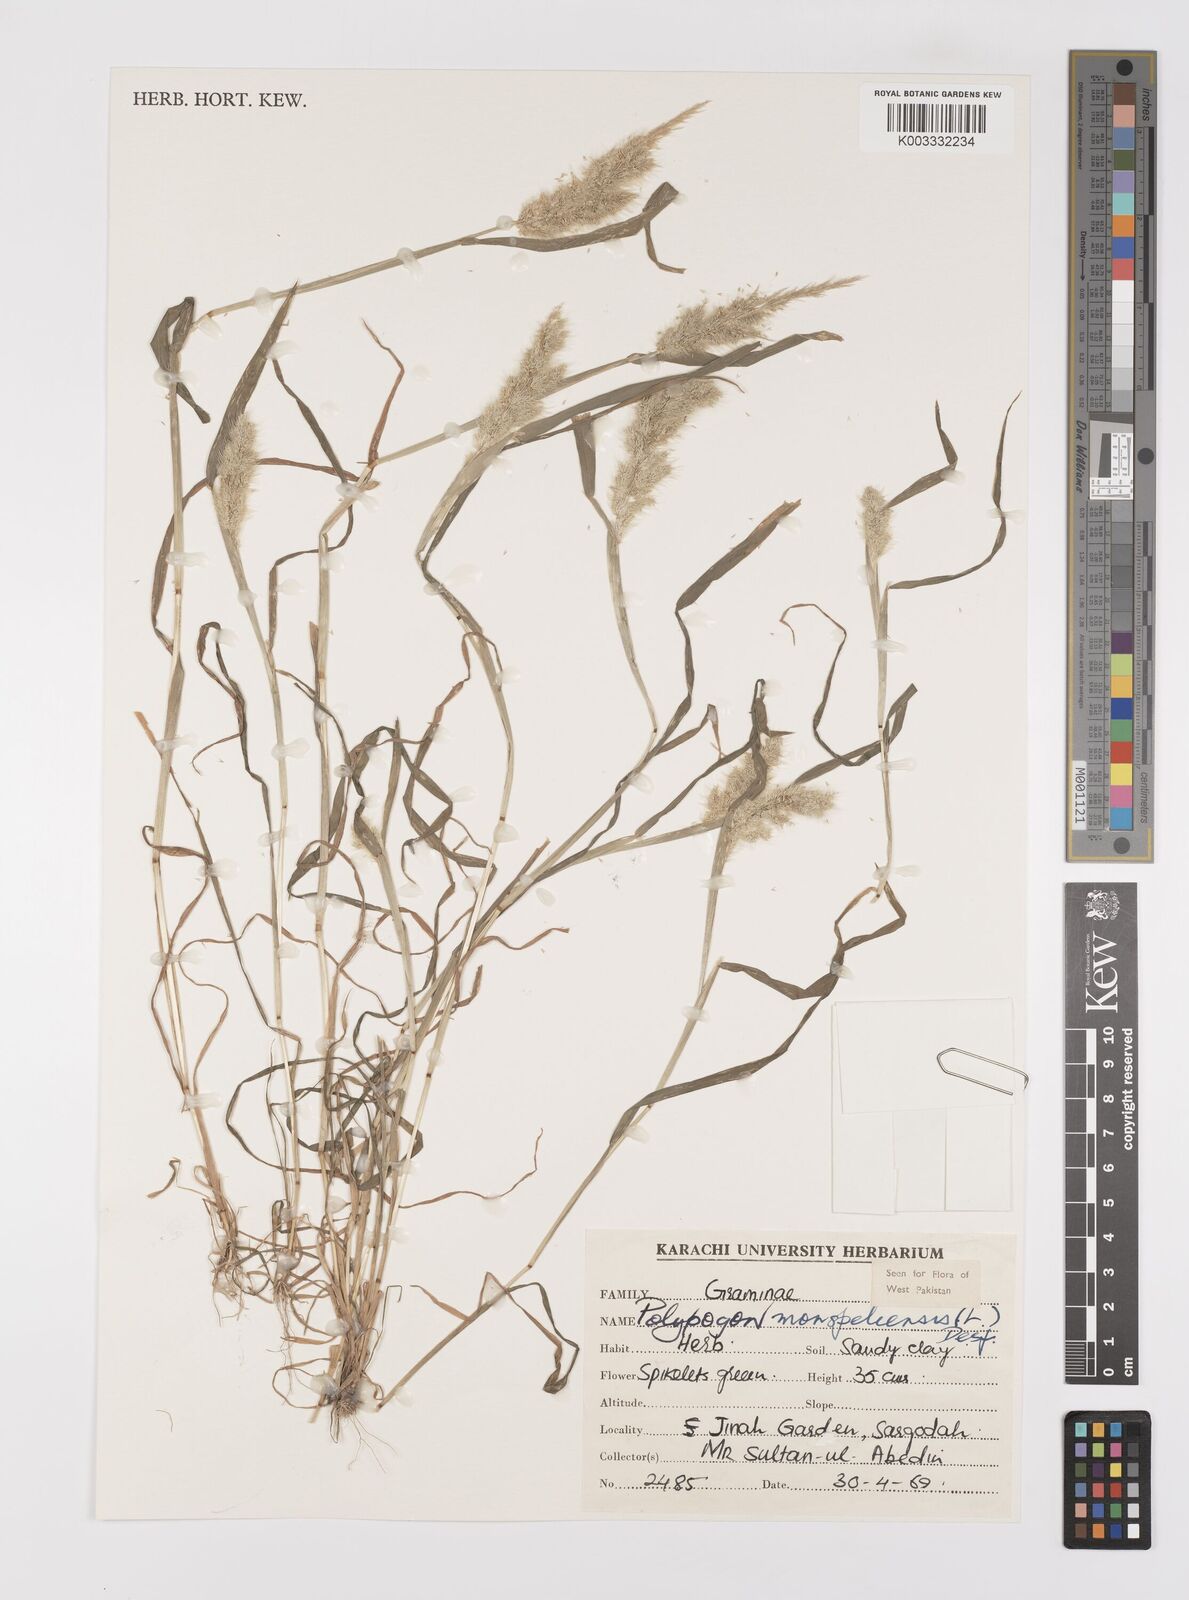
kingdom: Plantae
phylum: Tracheophyta
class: Liliopsida
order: Poales
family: Poaceae
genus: Polypogon
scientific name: Polypogon monspeliensis
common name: Annual rabbitsfoot grass
